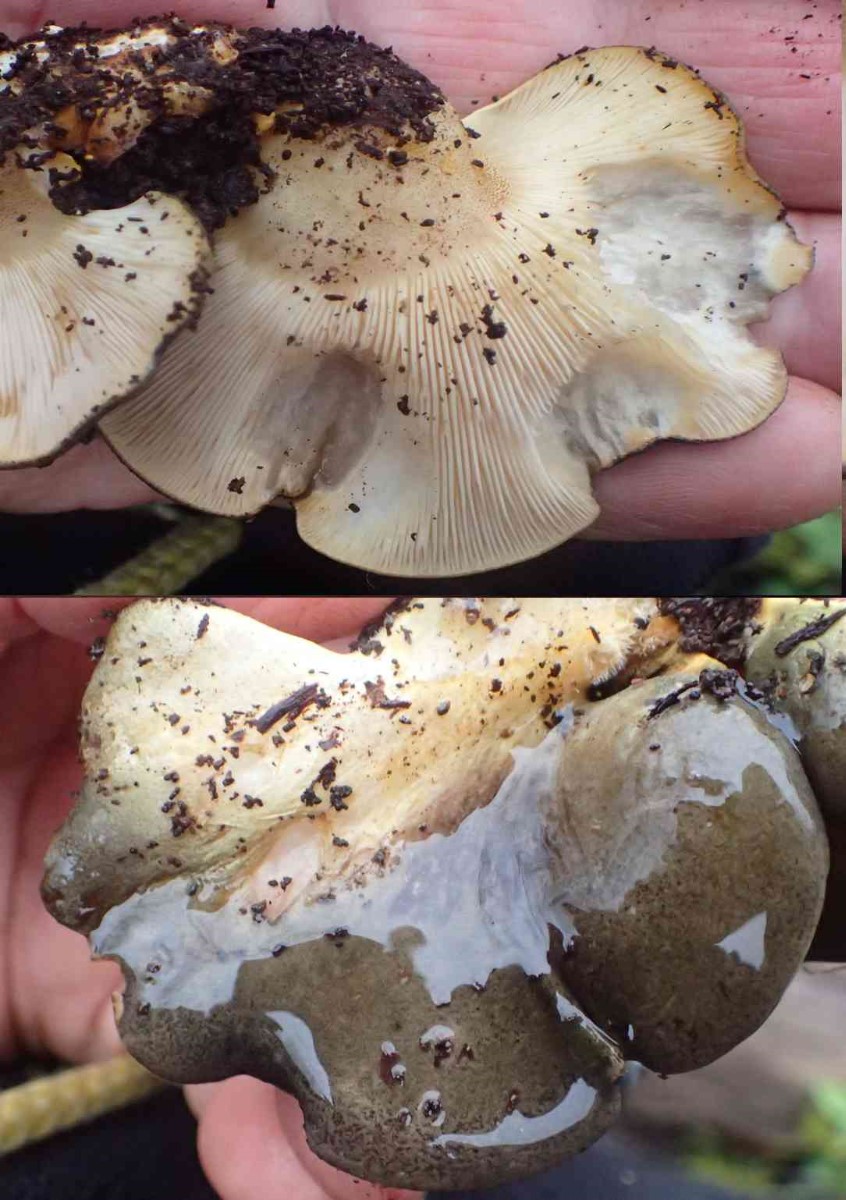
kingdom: Fungi
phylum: Basidiomycota
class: Agaricomycetes
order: Agaricales
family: Sarcomyxaceae
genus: Sarcomyxa
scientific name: Sarcomyxa serotina
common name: gummihat
